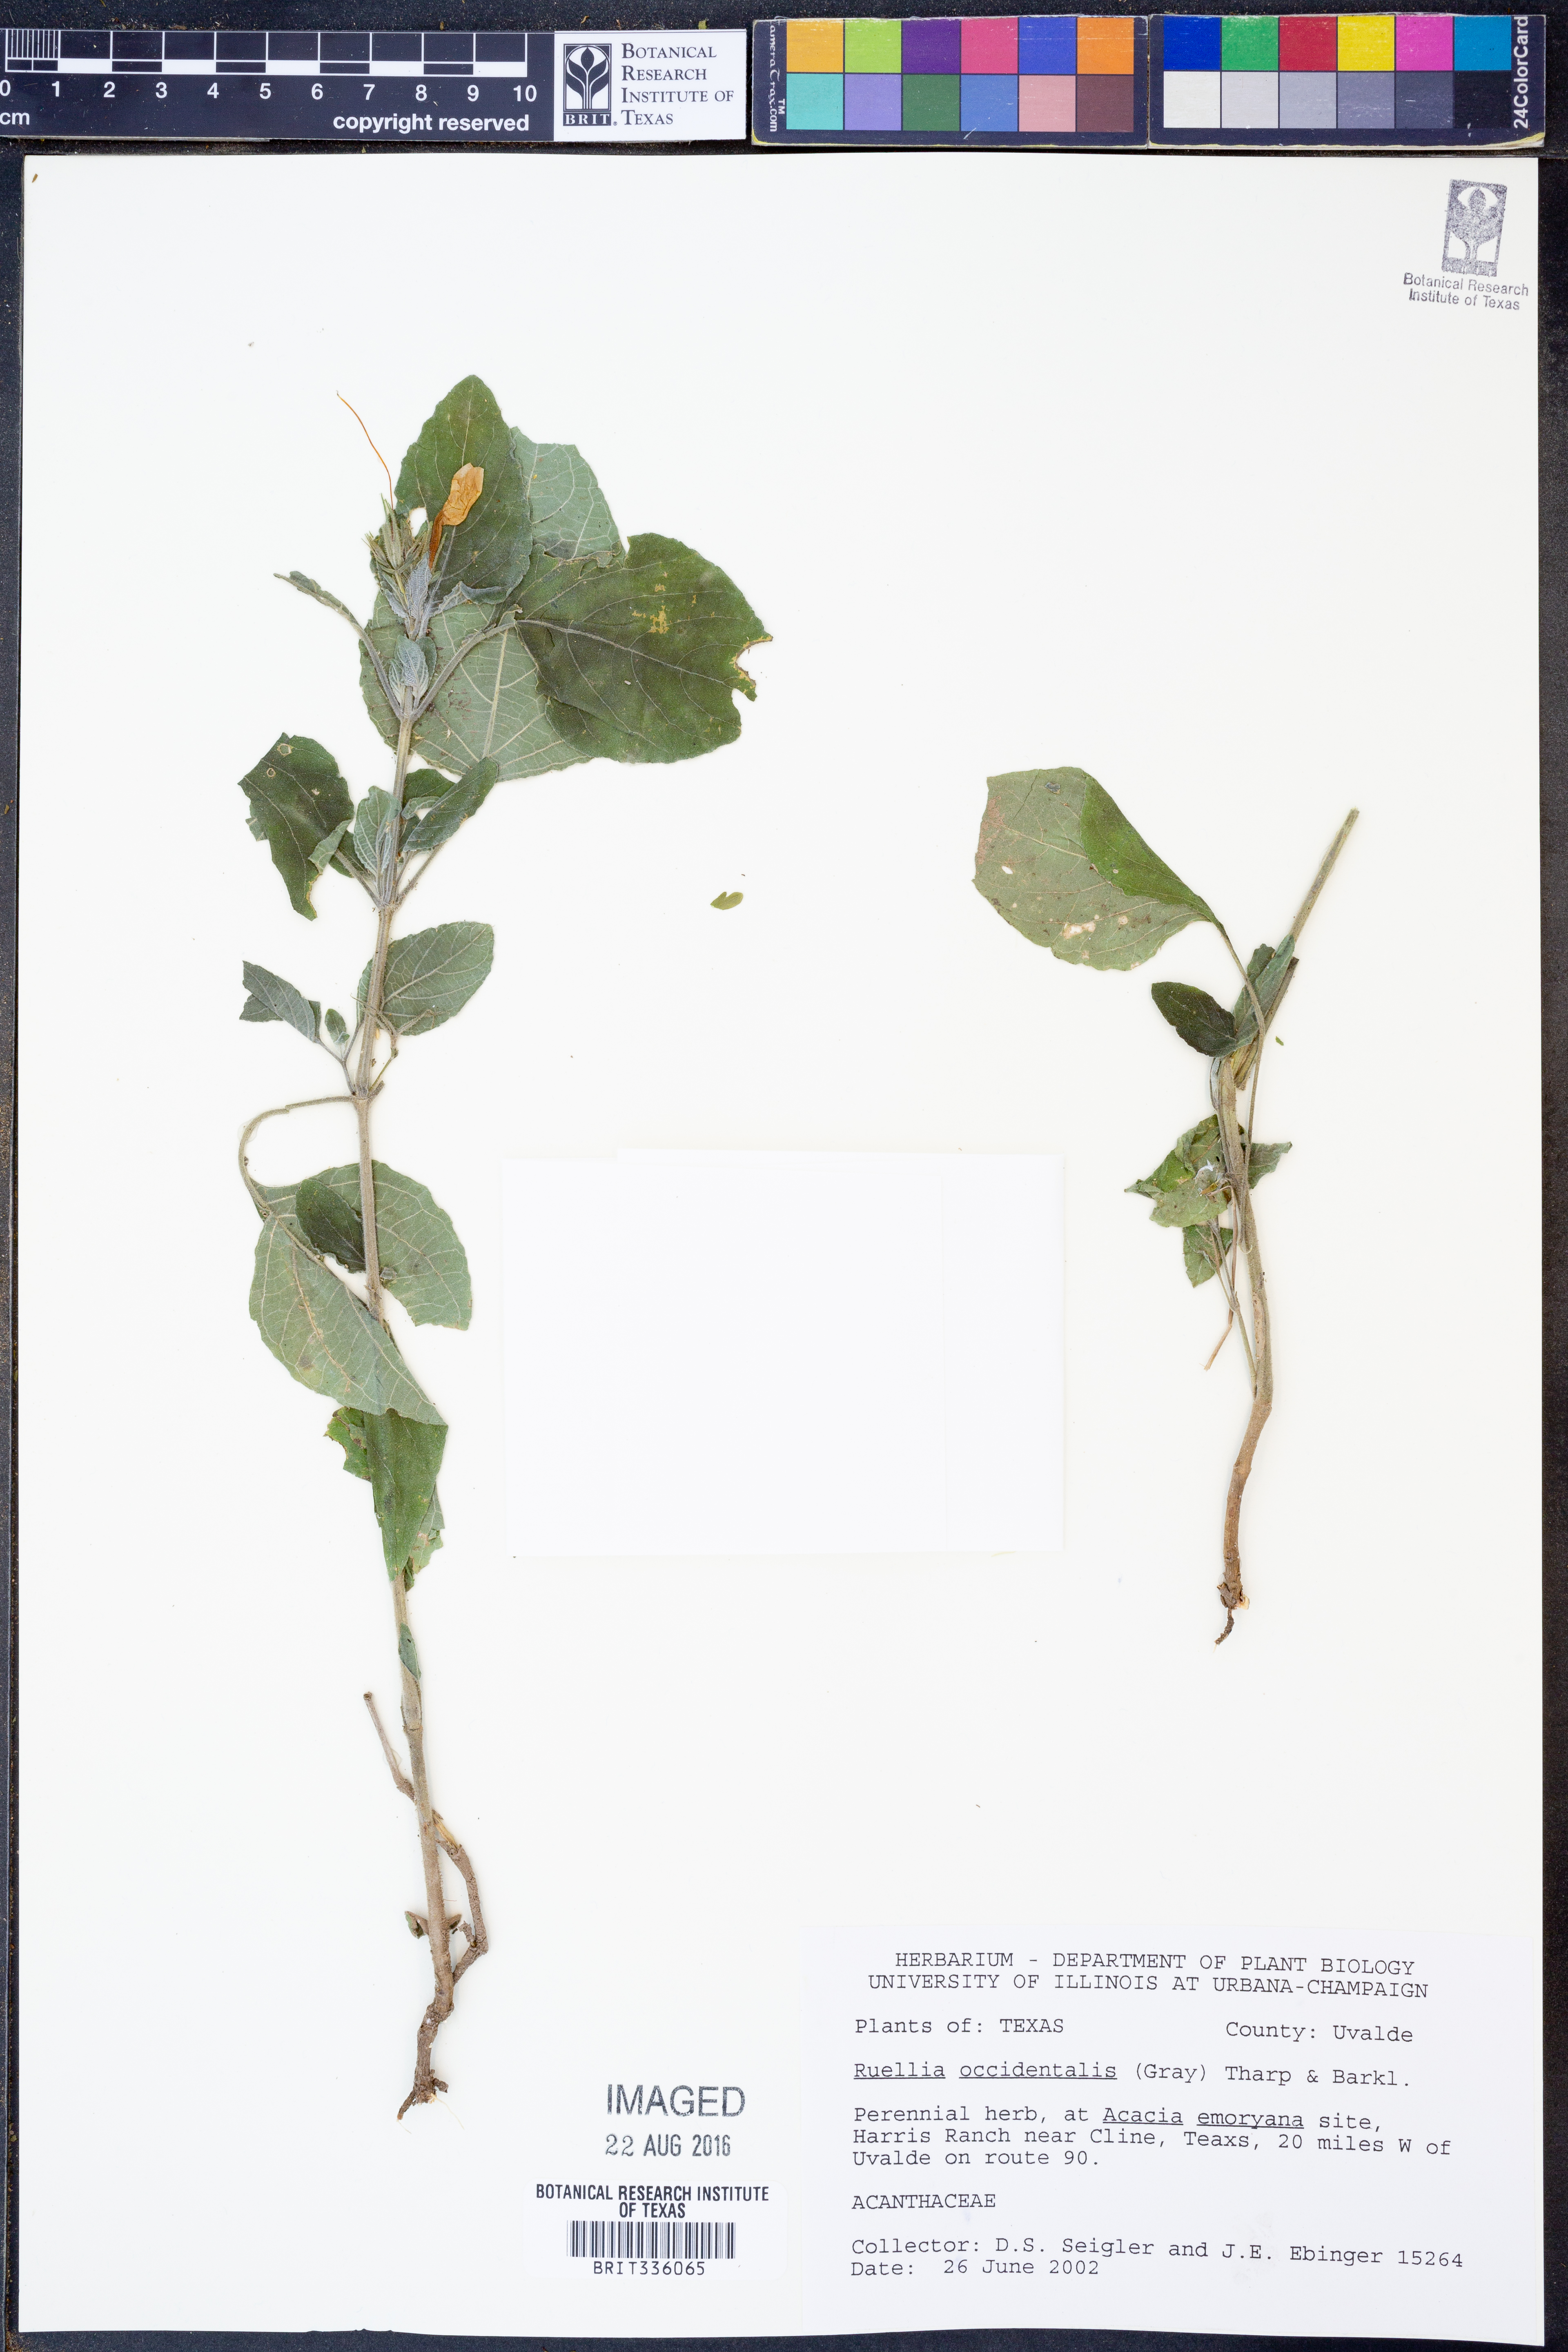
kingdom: Plantae
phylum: Tracheophyta
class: Magnoliopsida
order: Lamiales
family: Acanthaceae
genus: Ruellia
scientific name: Ruellia ciliatiflora
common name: Hairyflower wild petunia
